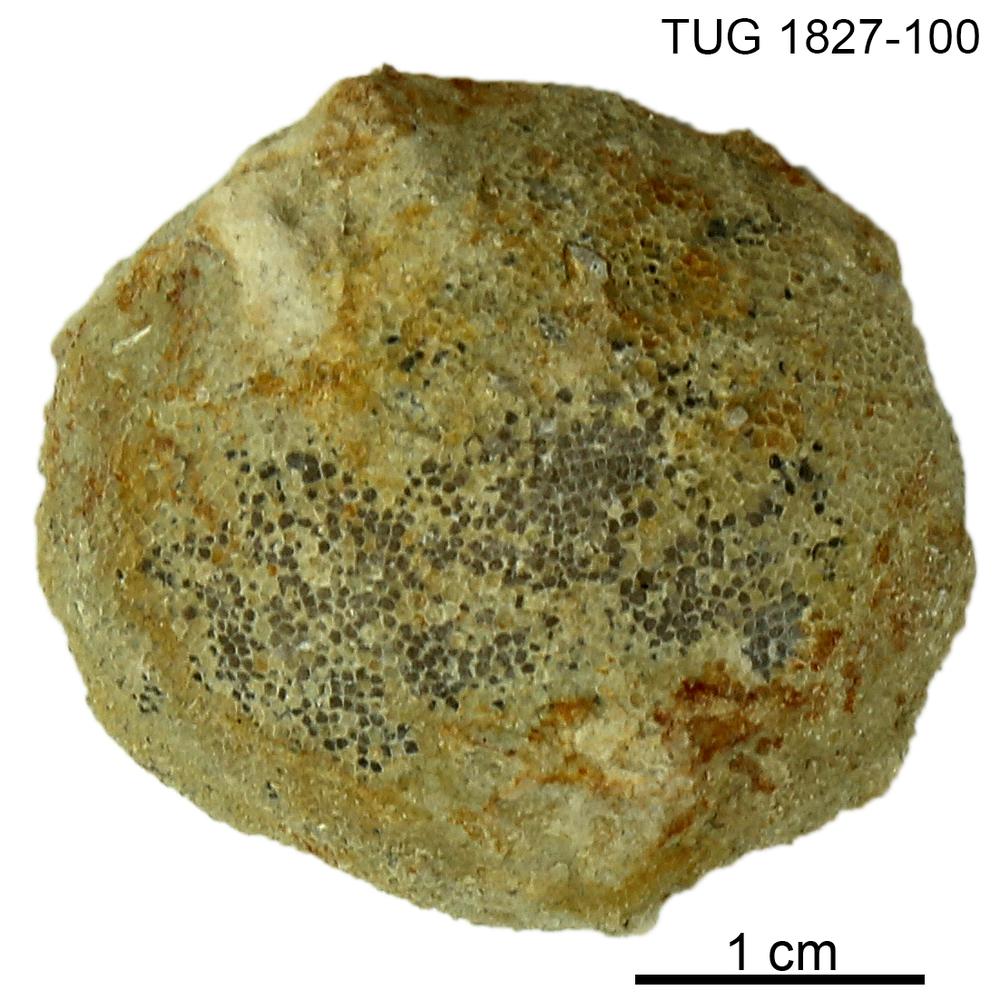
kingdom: Animalia
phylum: Bryozoa
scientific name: Bryozoa
